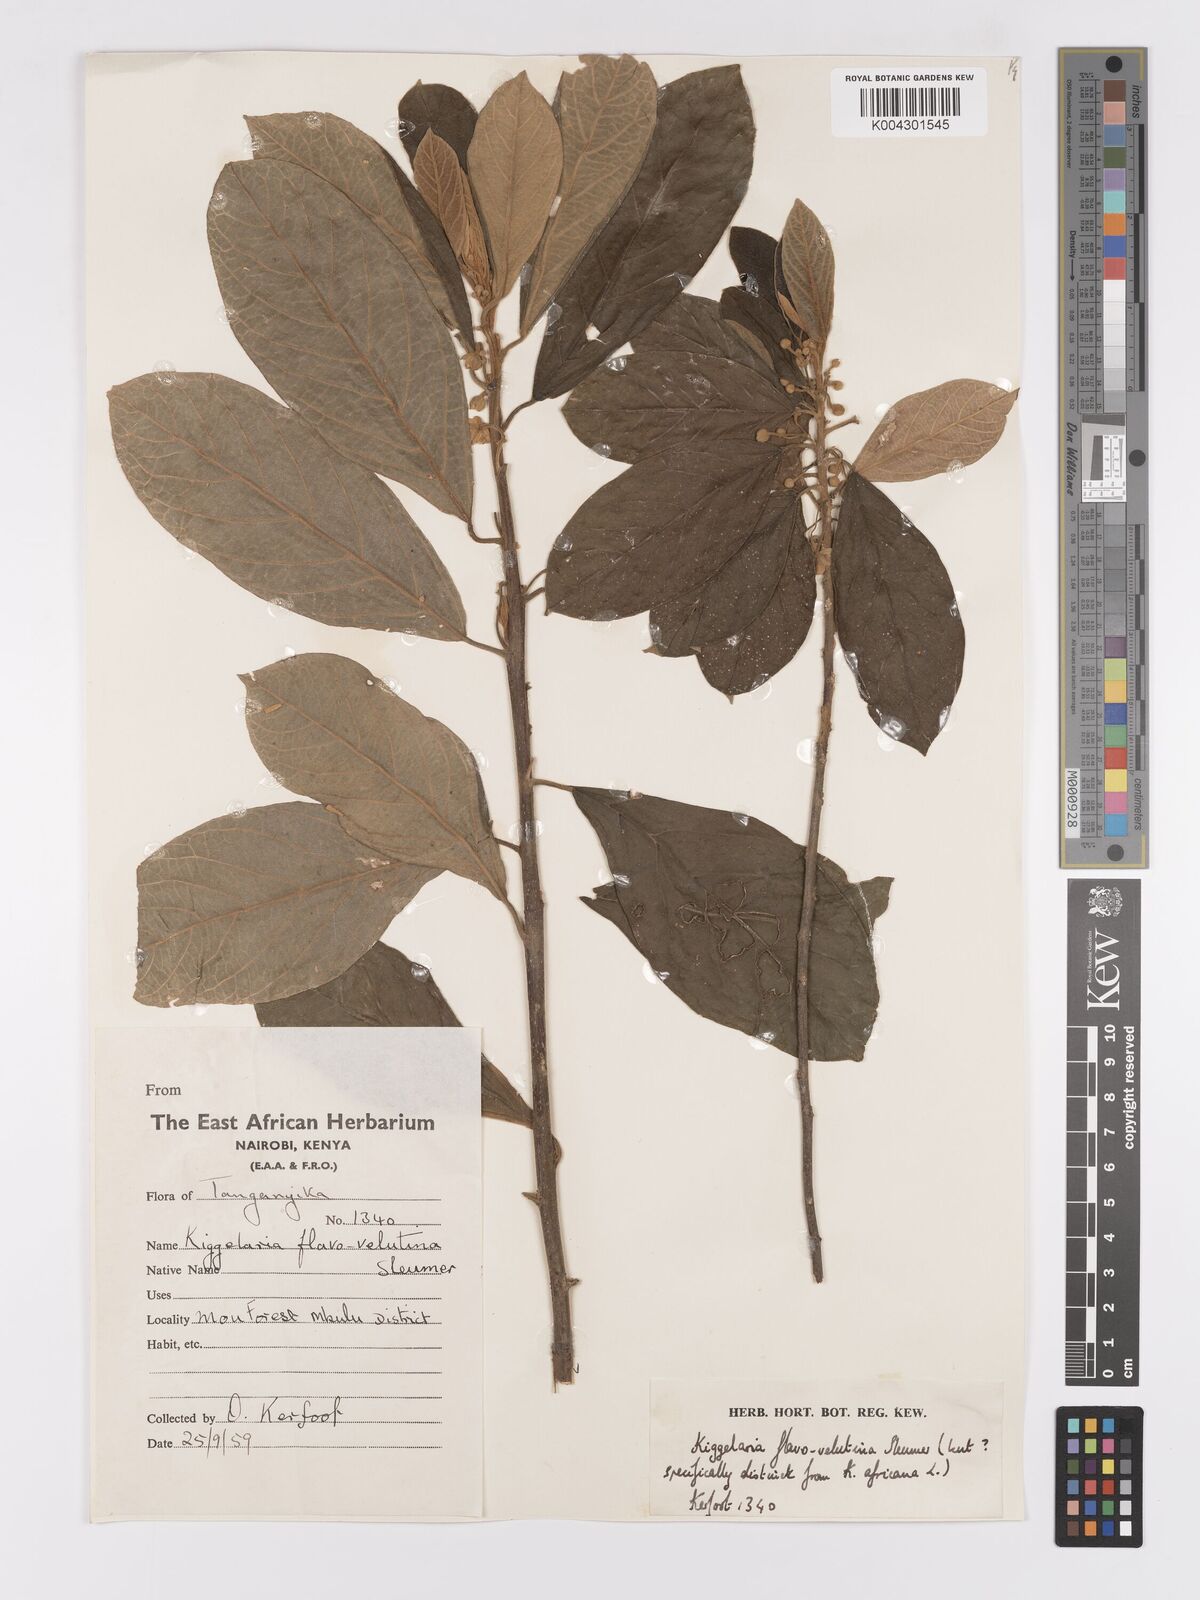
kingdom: Plantae
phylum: Tracheophyta
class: Magnoliopsida
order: Malpighiales
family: Achariaceae
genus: Kiggelaria
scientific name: Kiggelaria africana
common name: Wild peach
